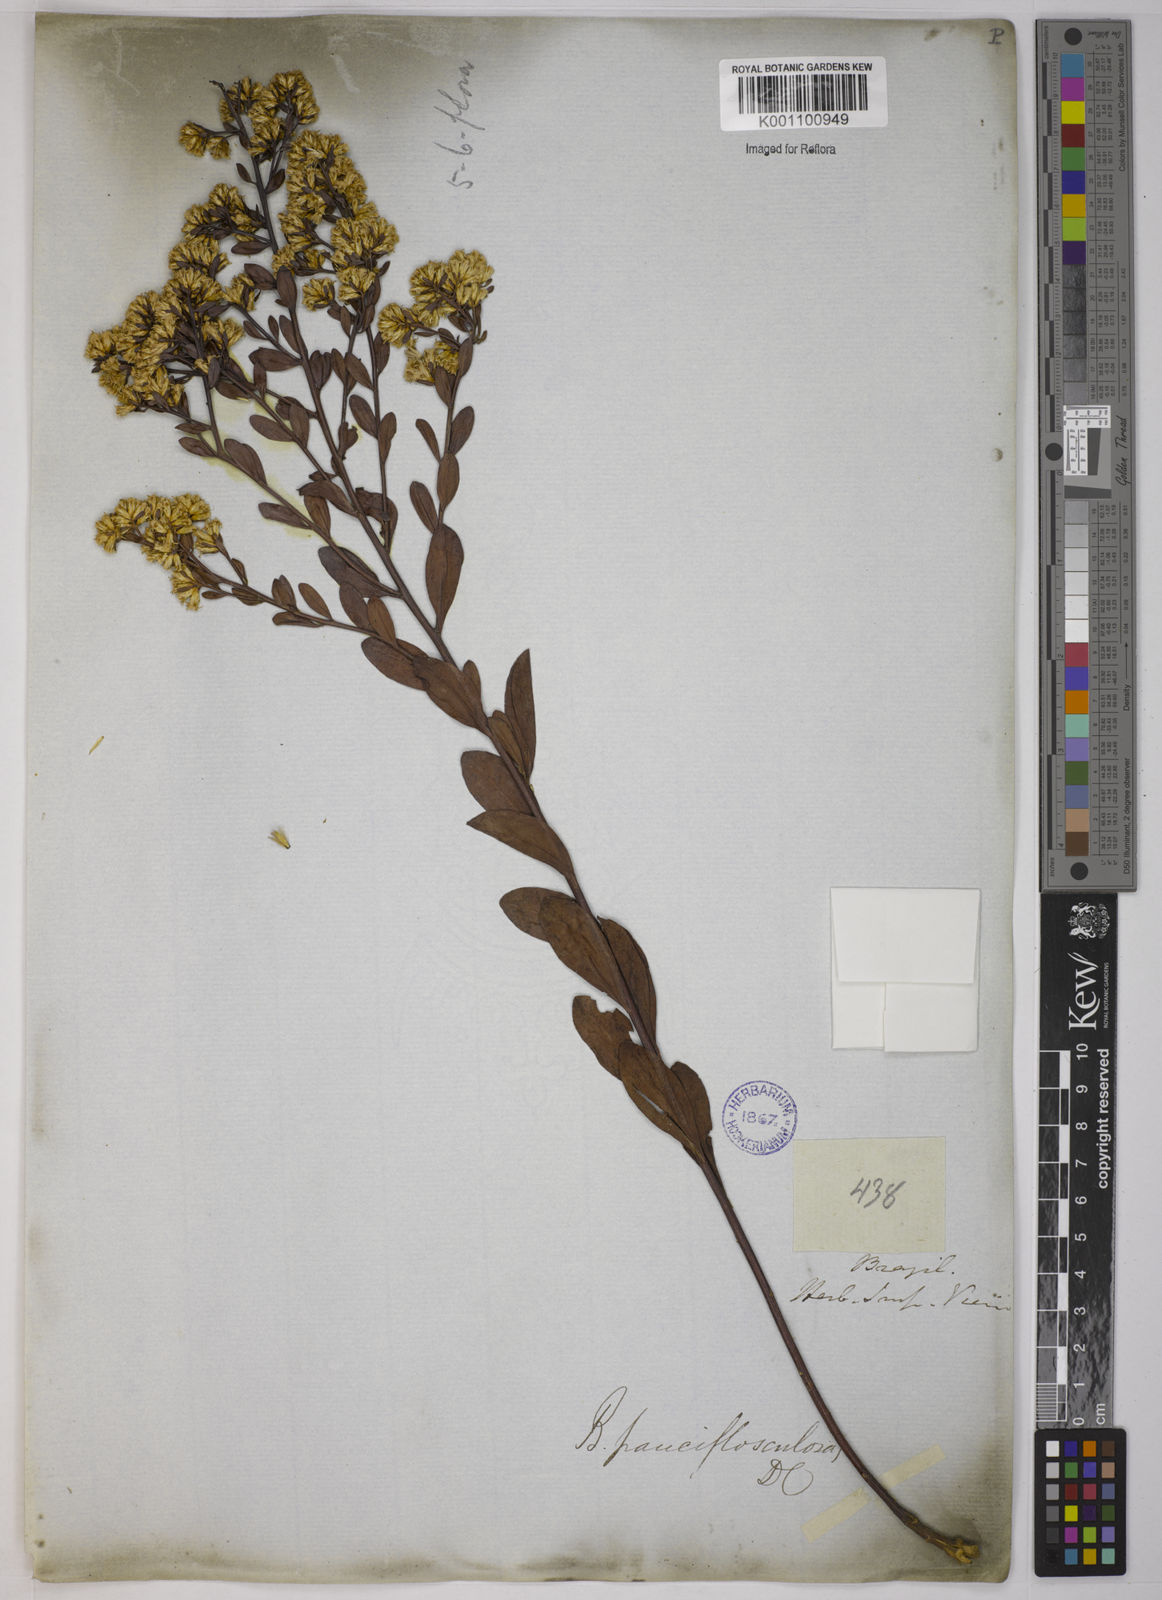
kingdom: Plantae
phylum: Tracheophyta
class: Magnoliopsida
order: Asterales
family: Asteraceae
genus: Baccharis
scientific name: Baccharis pauciflosculosa
